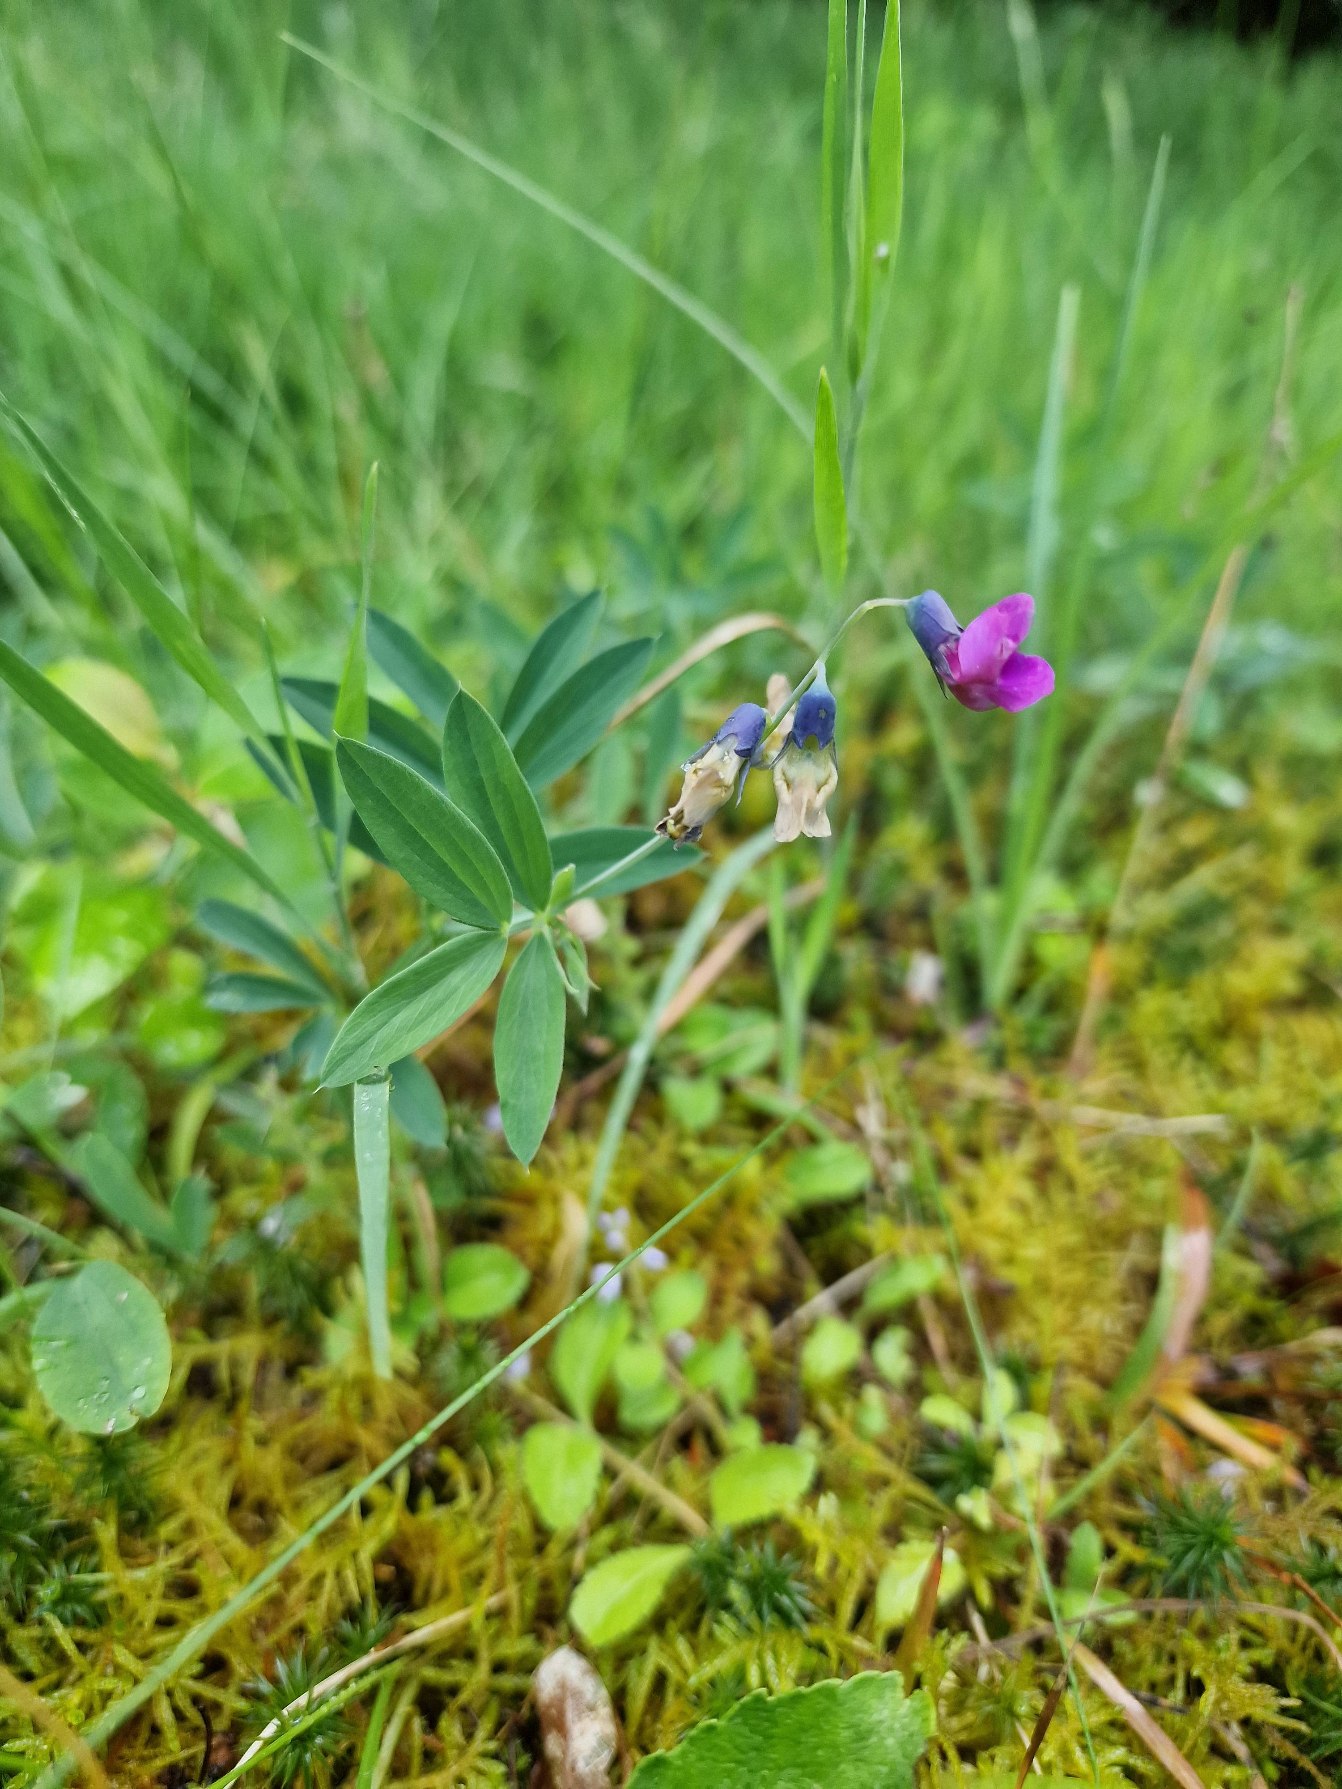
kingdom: Plantae
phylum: Tracheophyta
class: Magnoliopsida
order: Fabales
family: Fabaceae
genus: Lathyrus
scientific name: Lathyrus linifolius
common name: Krat-fladbælg
